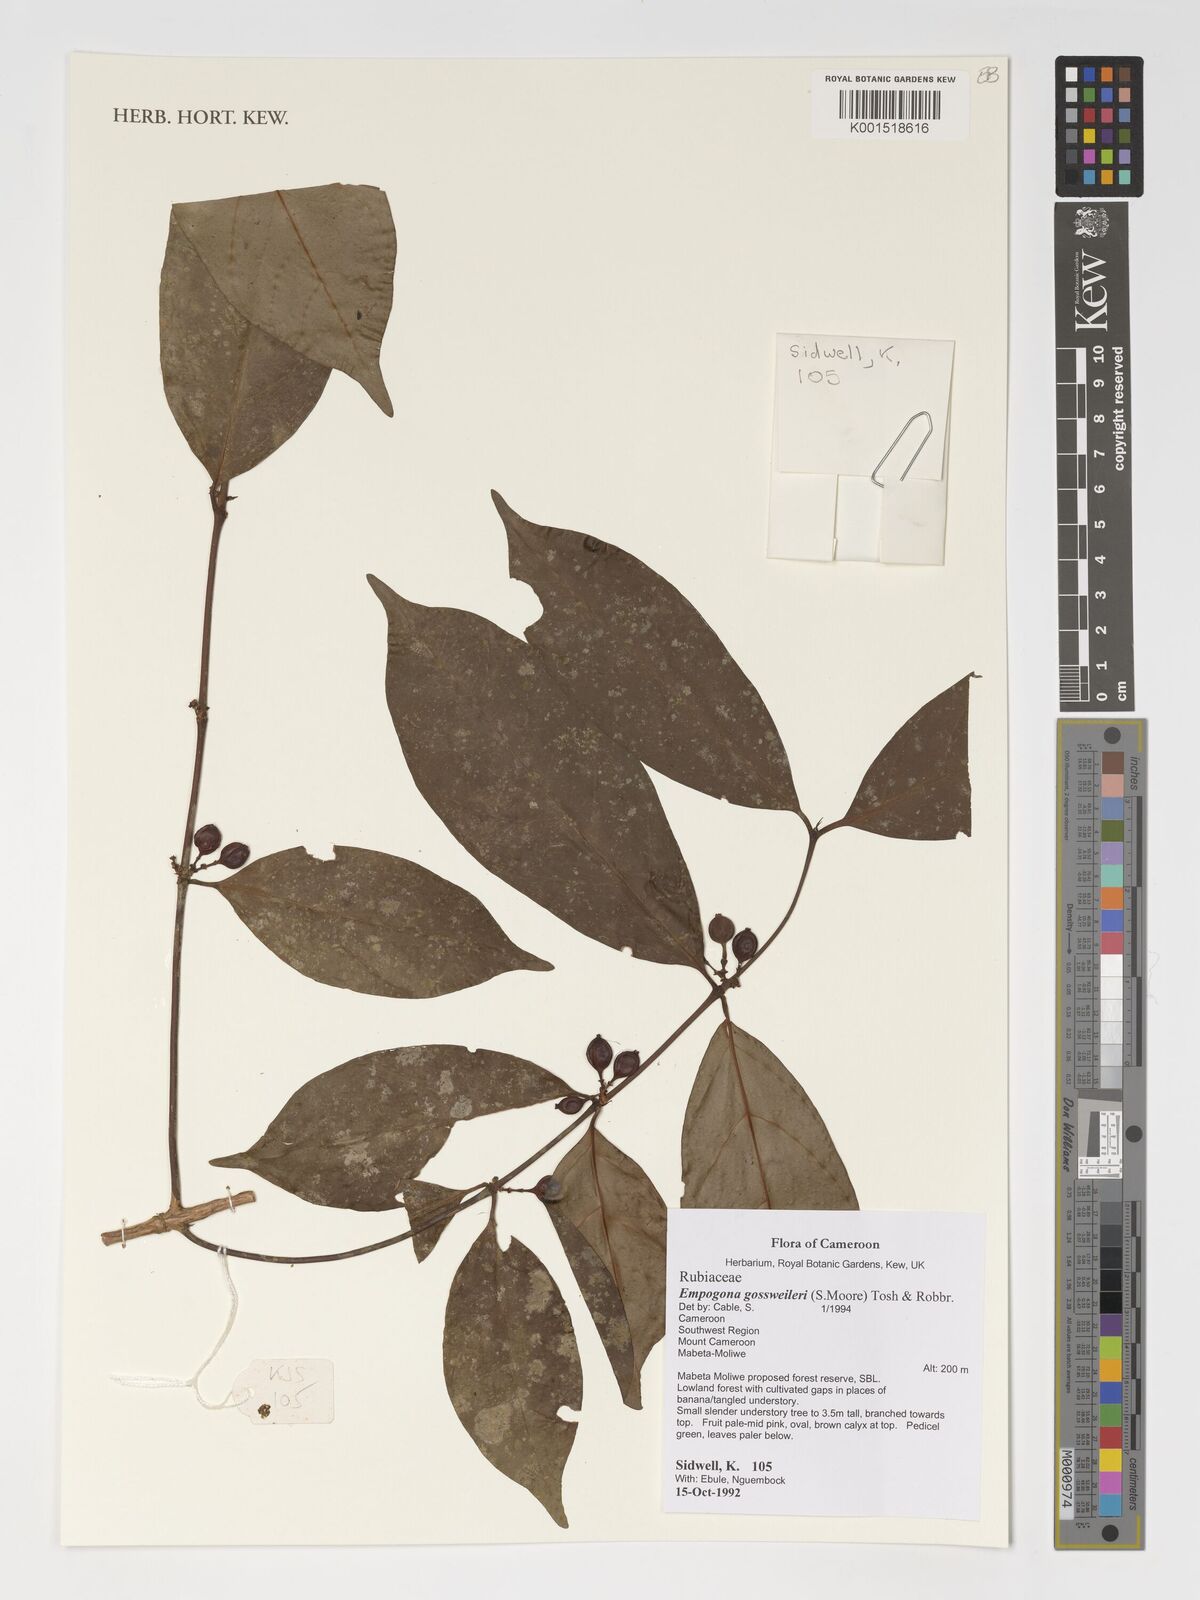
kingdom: Plantae
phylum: Tracheophyta
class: Magnoliopsida
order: Gentianales
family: Rubiaceae
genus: Empogona
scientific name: Empogona gossweileri
